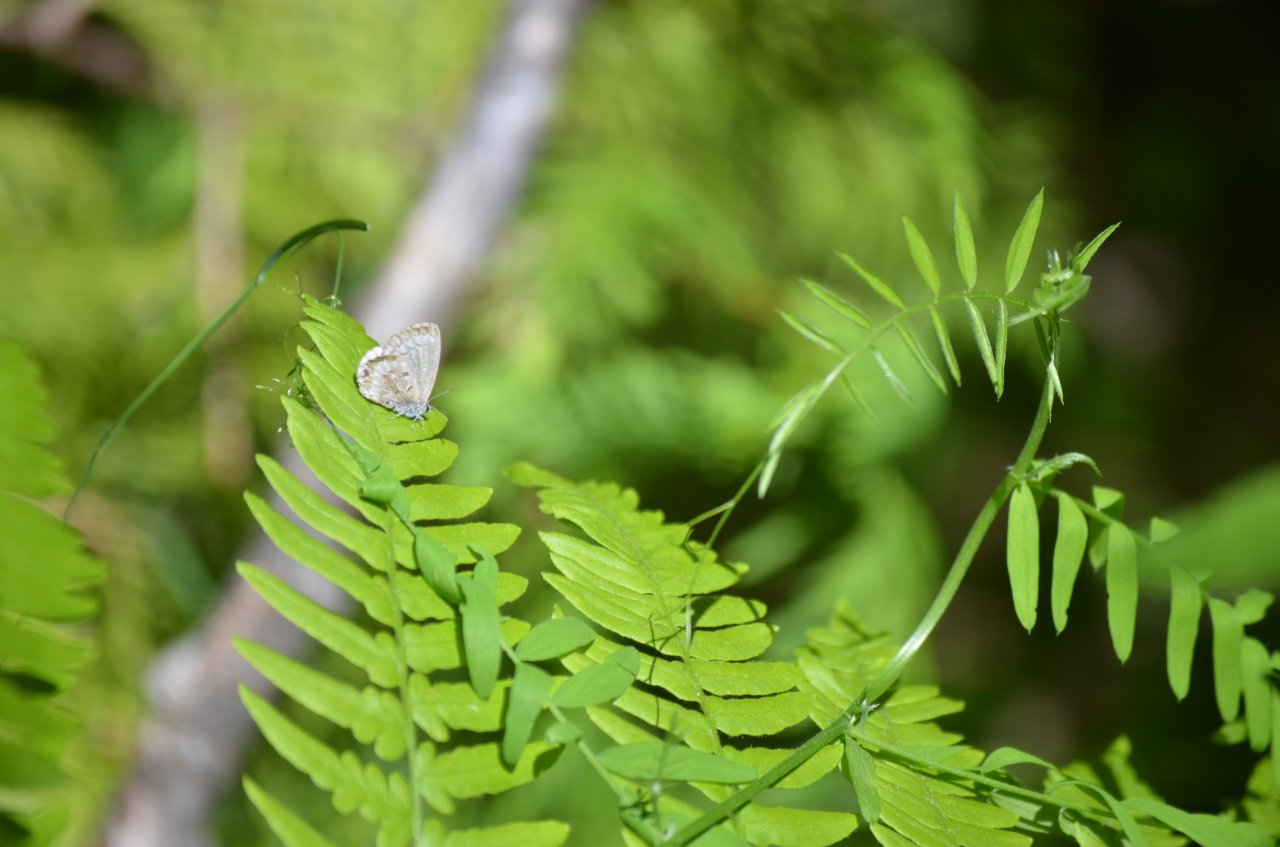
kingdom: Animalia
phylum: Arthropoda
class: Insecta
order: Lepidoptera
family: Lycaenidae
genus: Celastrina
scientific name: Celastrina
